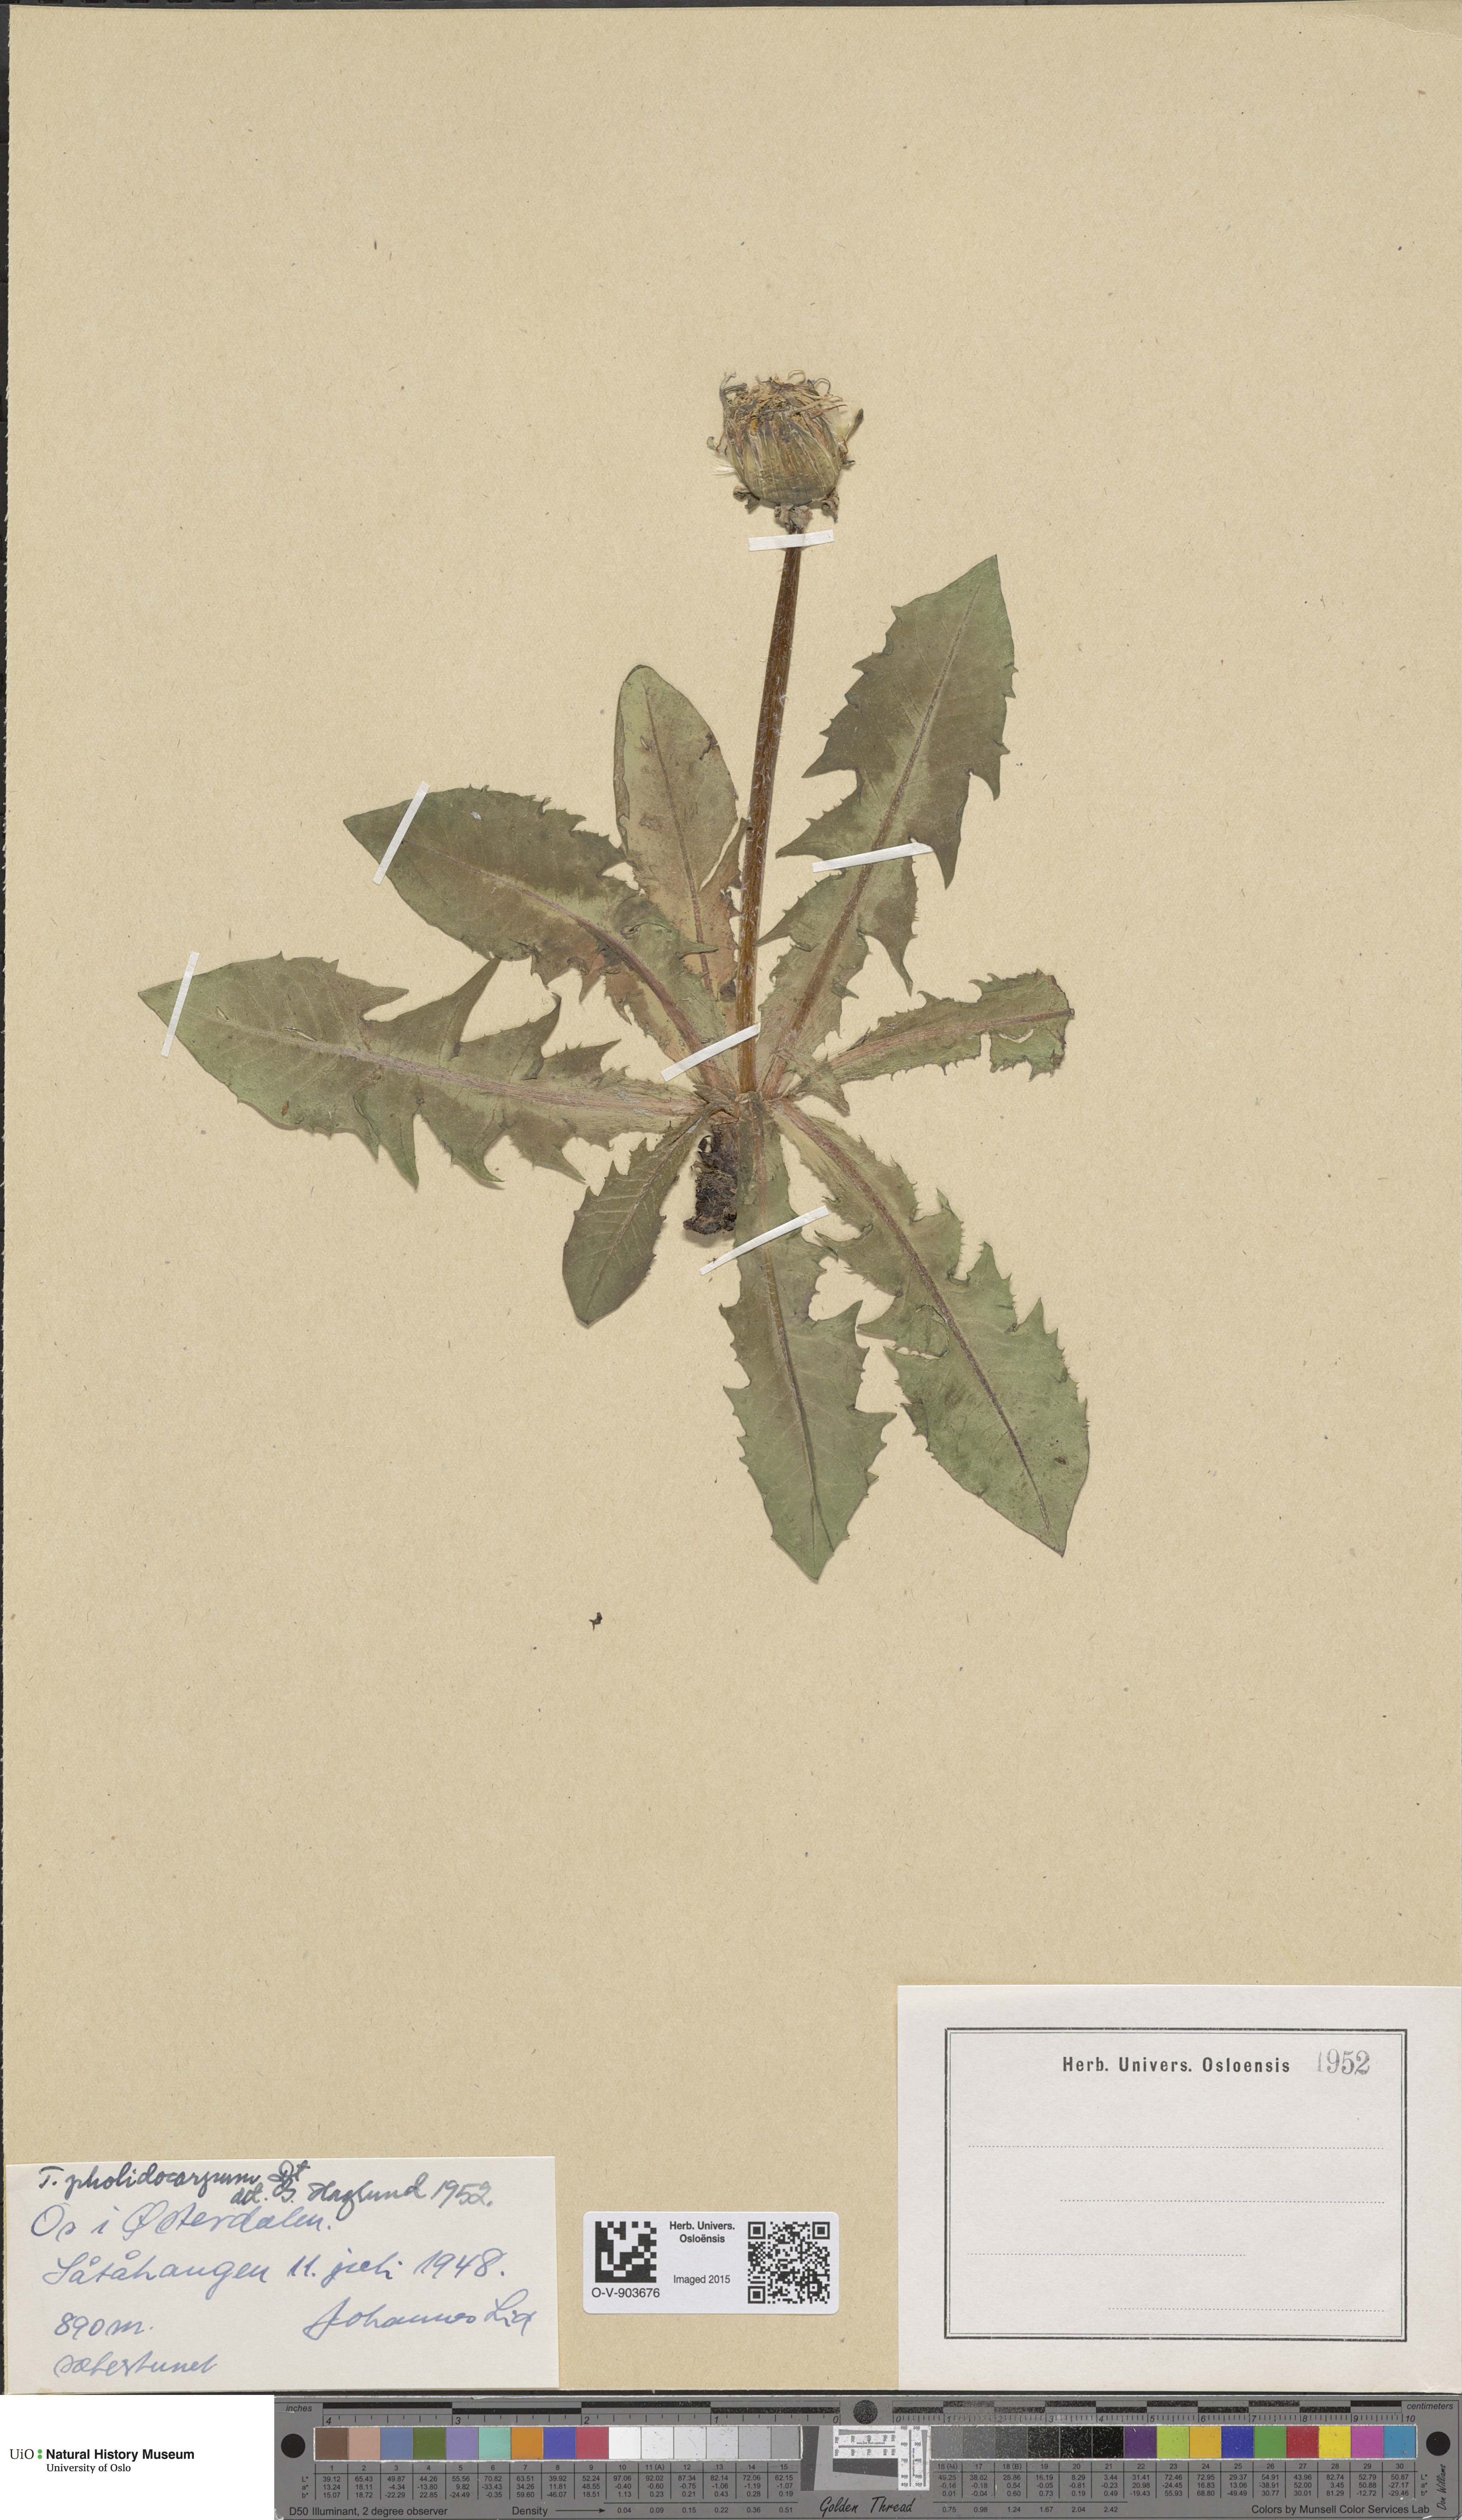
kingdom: Plantae
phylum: Tracheophyta
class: Magnoliopsida
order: Asterales
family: Asteraceae
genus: Taraxacum
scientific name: Taraxacum pholidocarpum
